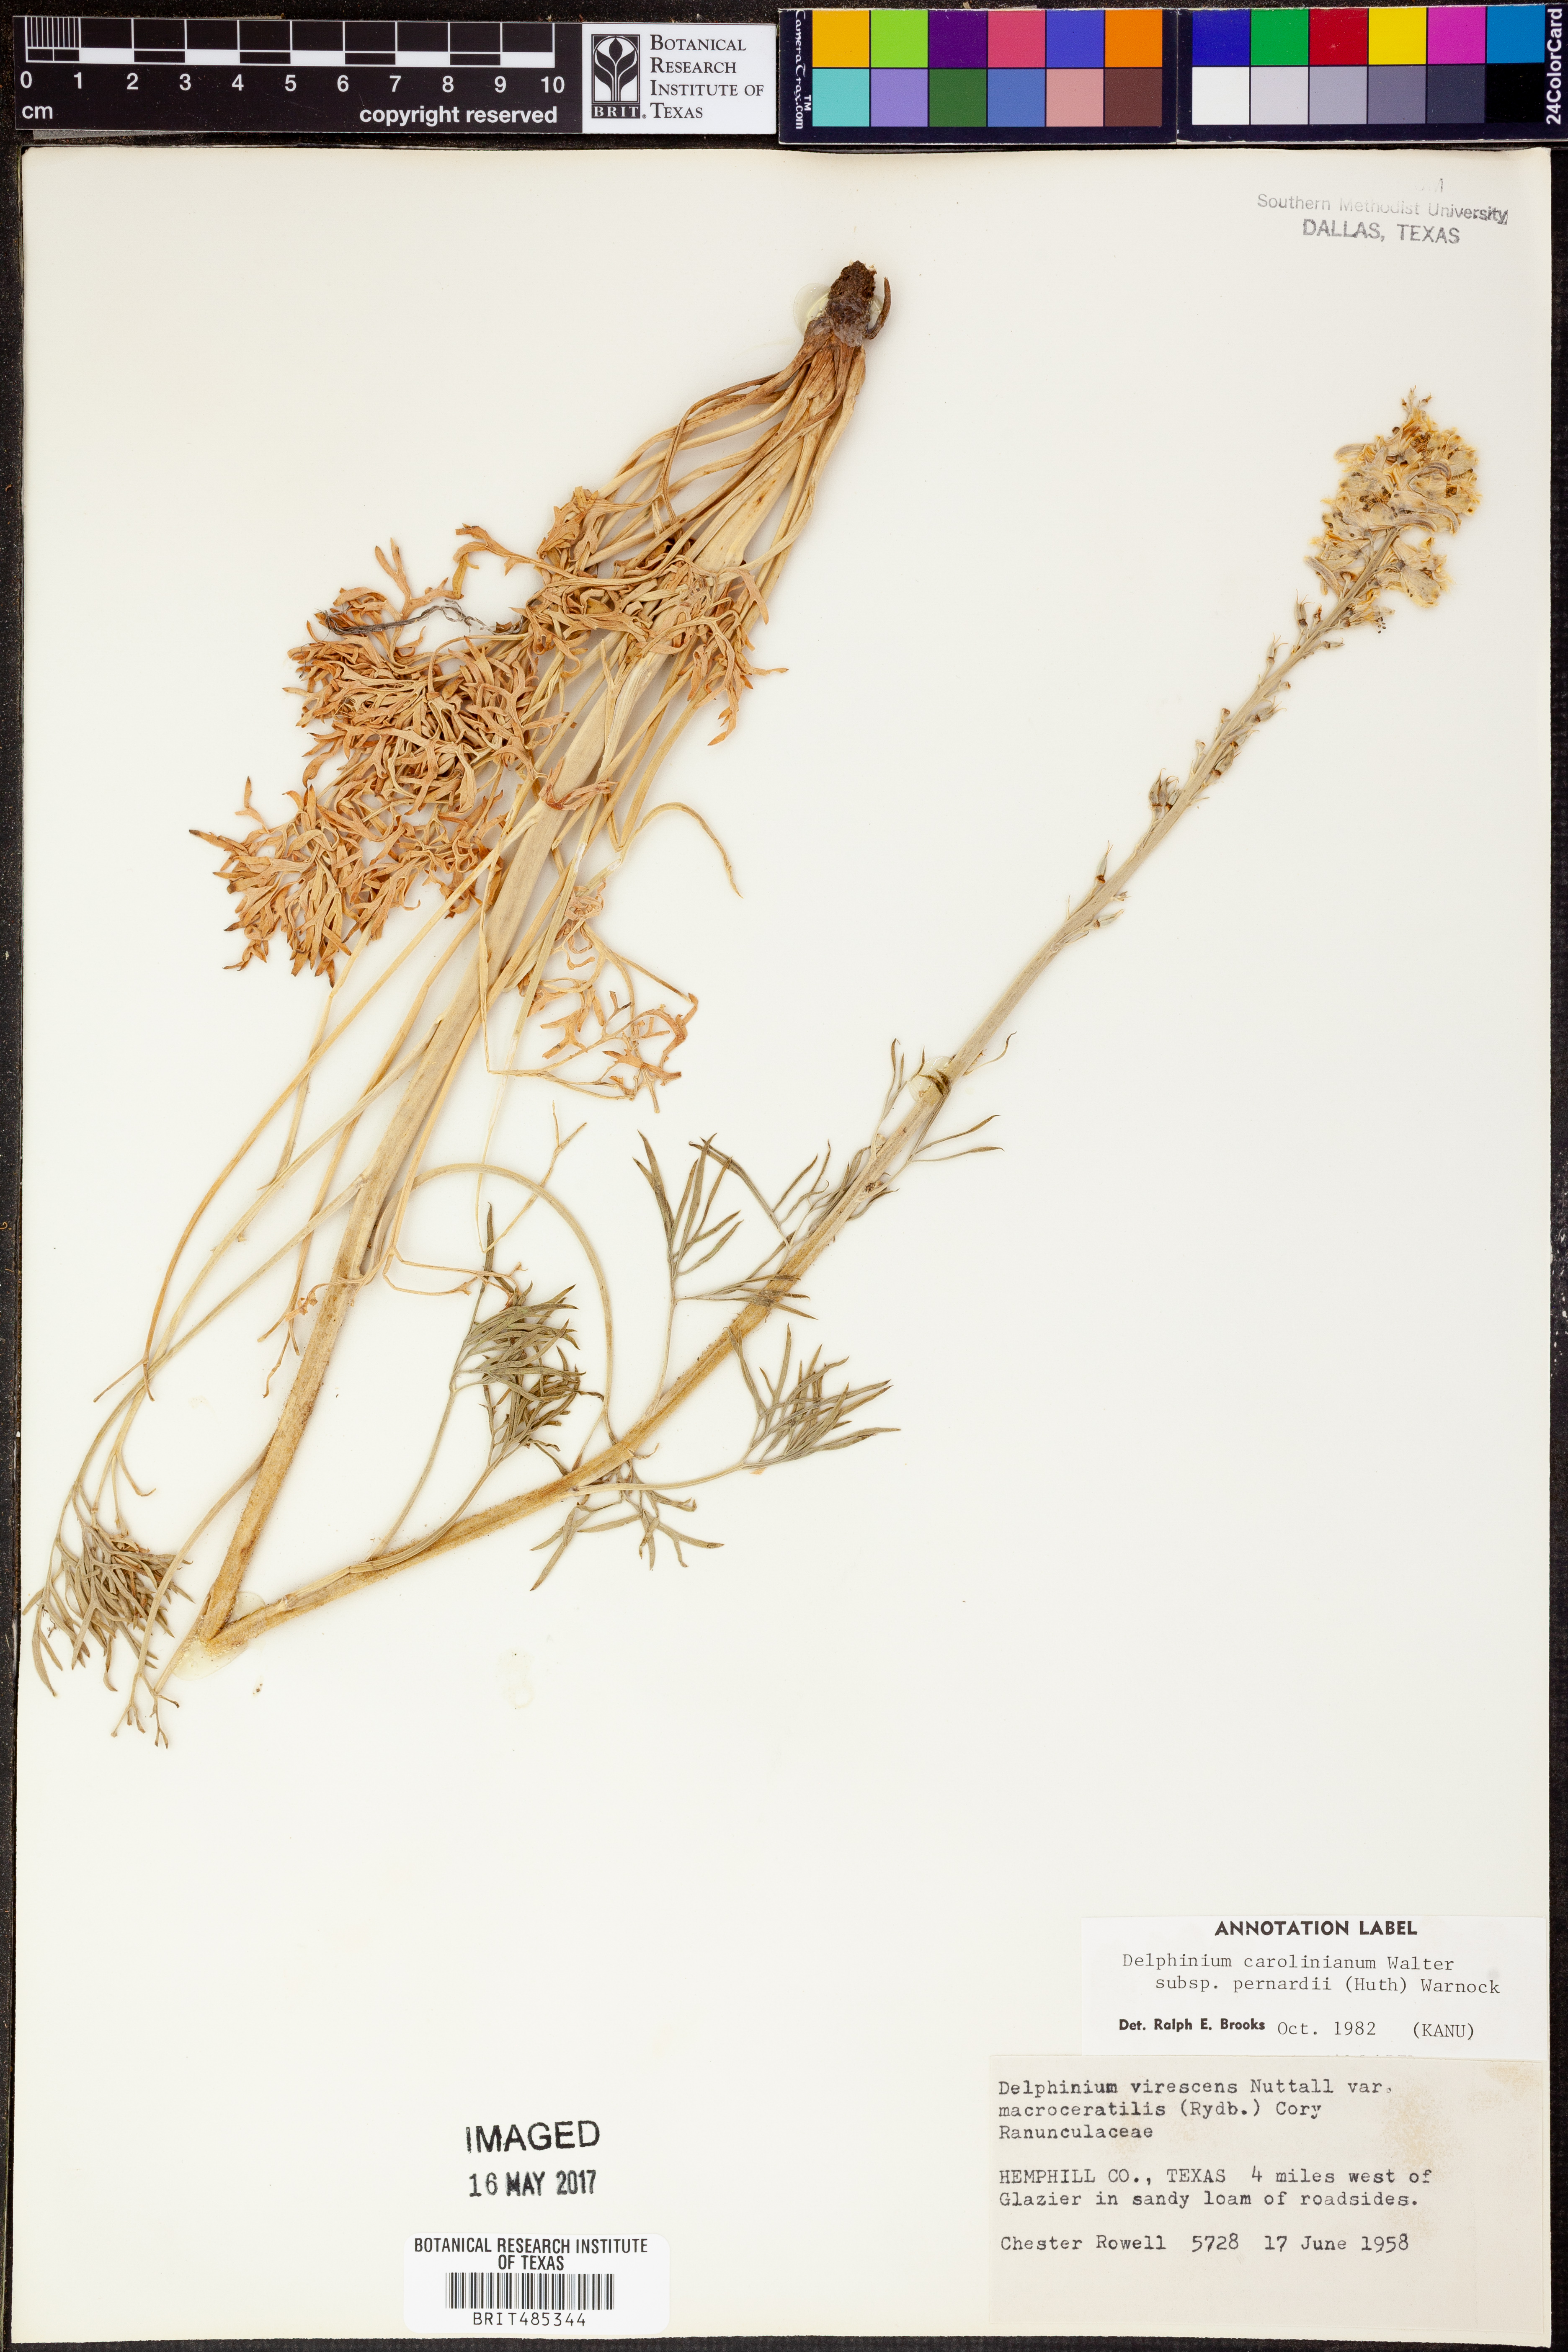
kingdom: Plantae
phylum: Tracheophyta
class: Magnoliopsida
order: Ranunculales
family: Ranunculaceae
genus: Delphinium
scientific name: Delphinium carolinianum
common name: Carolina larkspur
